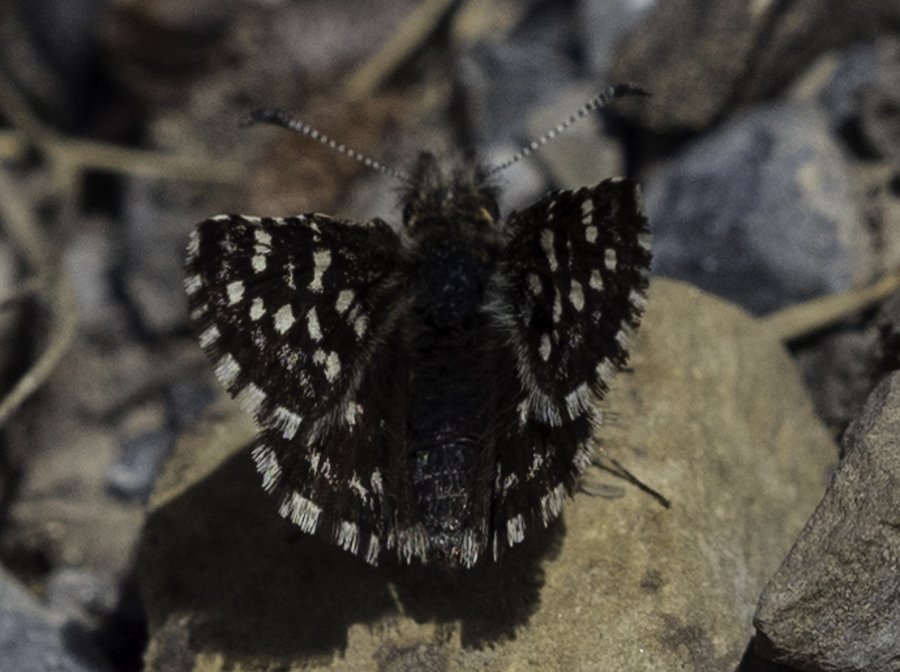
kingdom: Animalia
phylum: Arthropoda
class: Insecta
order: Lepidoptera
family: Hesperiidae
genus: Pyrgus
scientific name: Pyrgus ruralis
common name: Two-banded Checkered-Skipper
